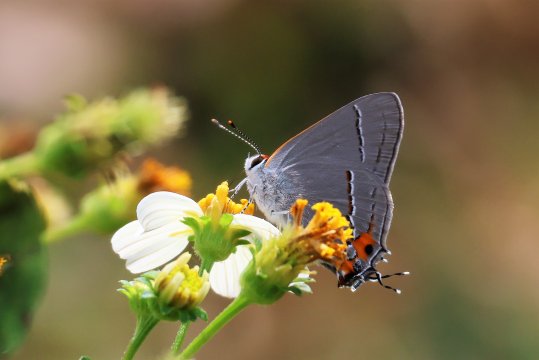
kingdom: Animalia
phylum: Arthropoda
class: Insecta
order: Lepidoptera
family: Lycaenidae
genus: Strymon
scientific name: Strymon melinus
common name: Gray Hairstreak
